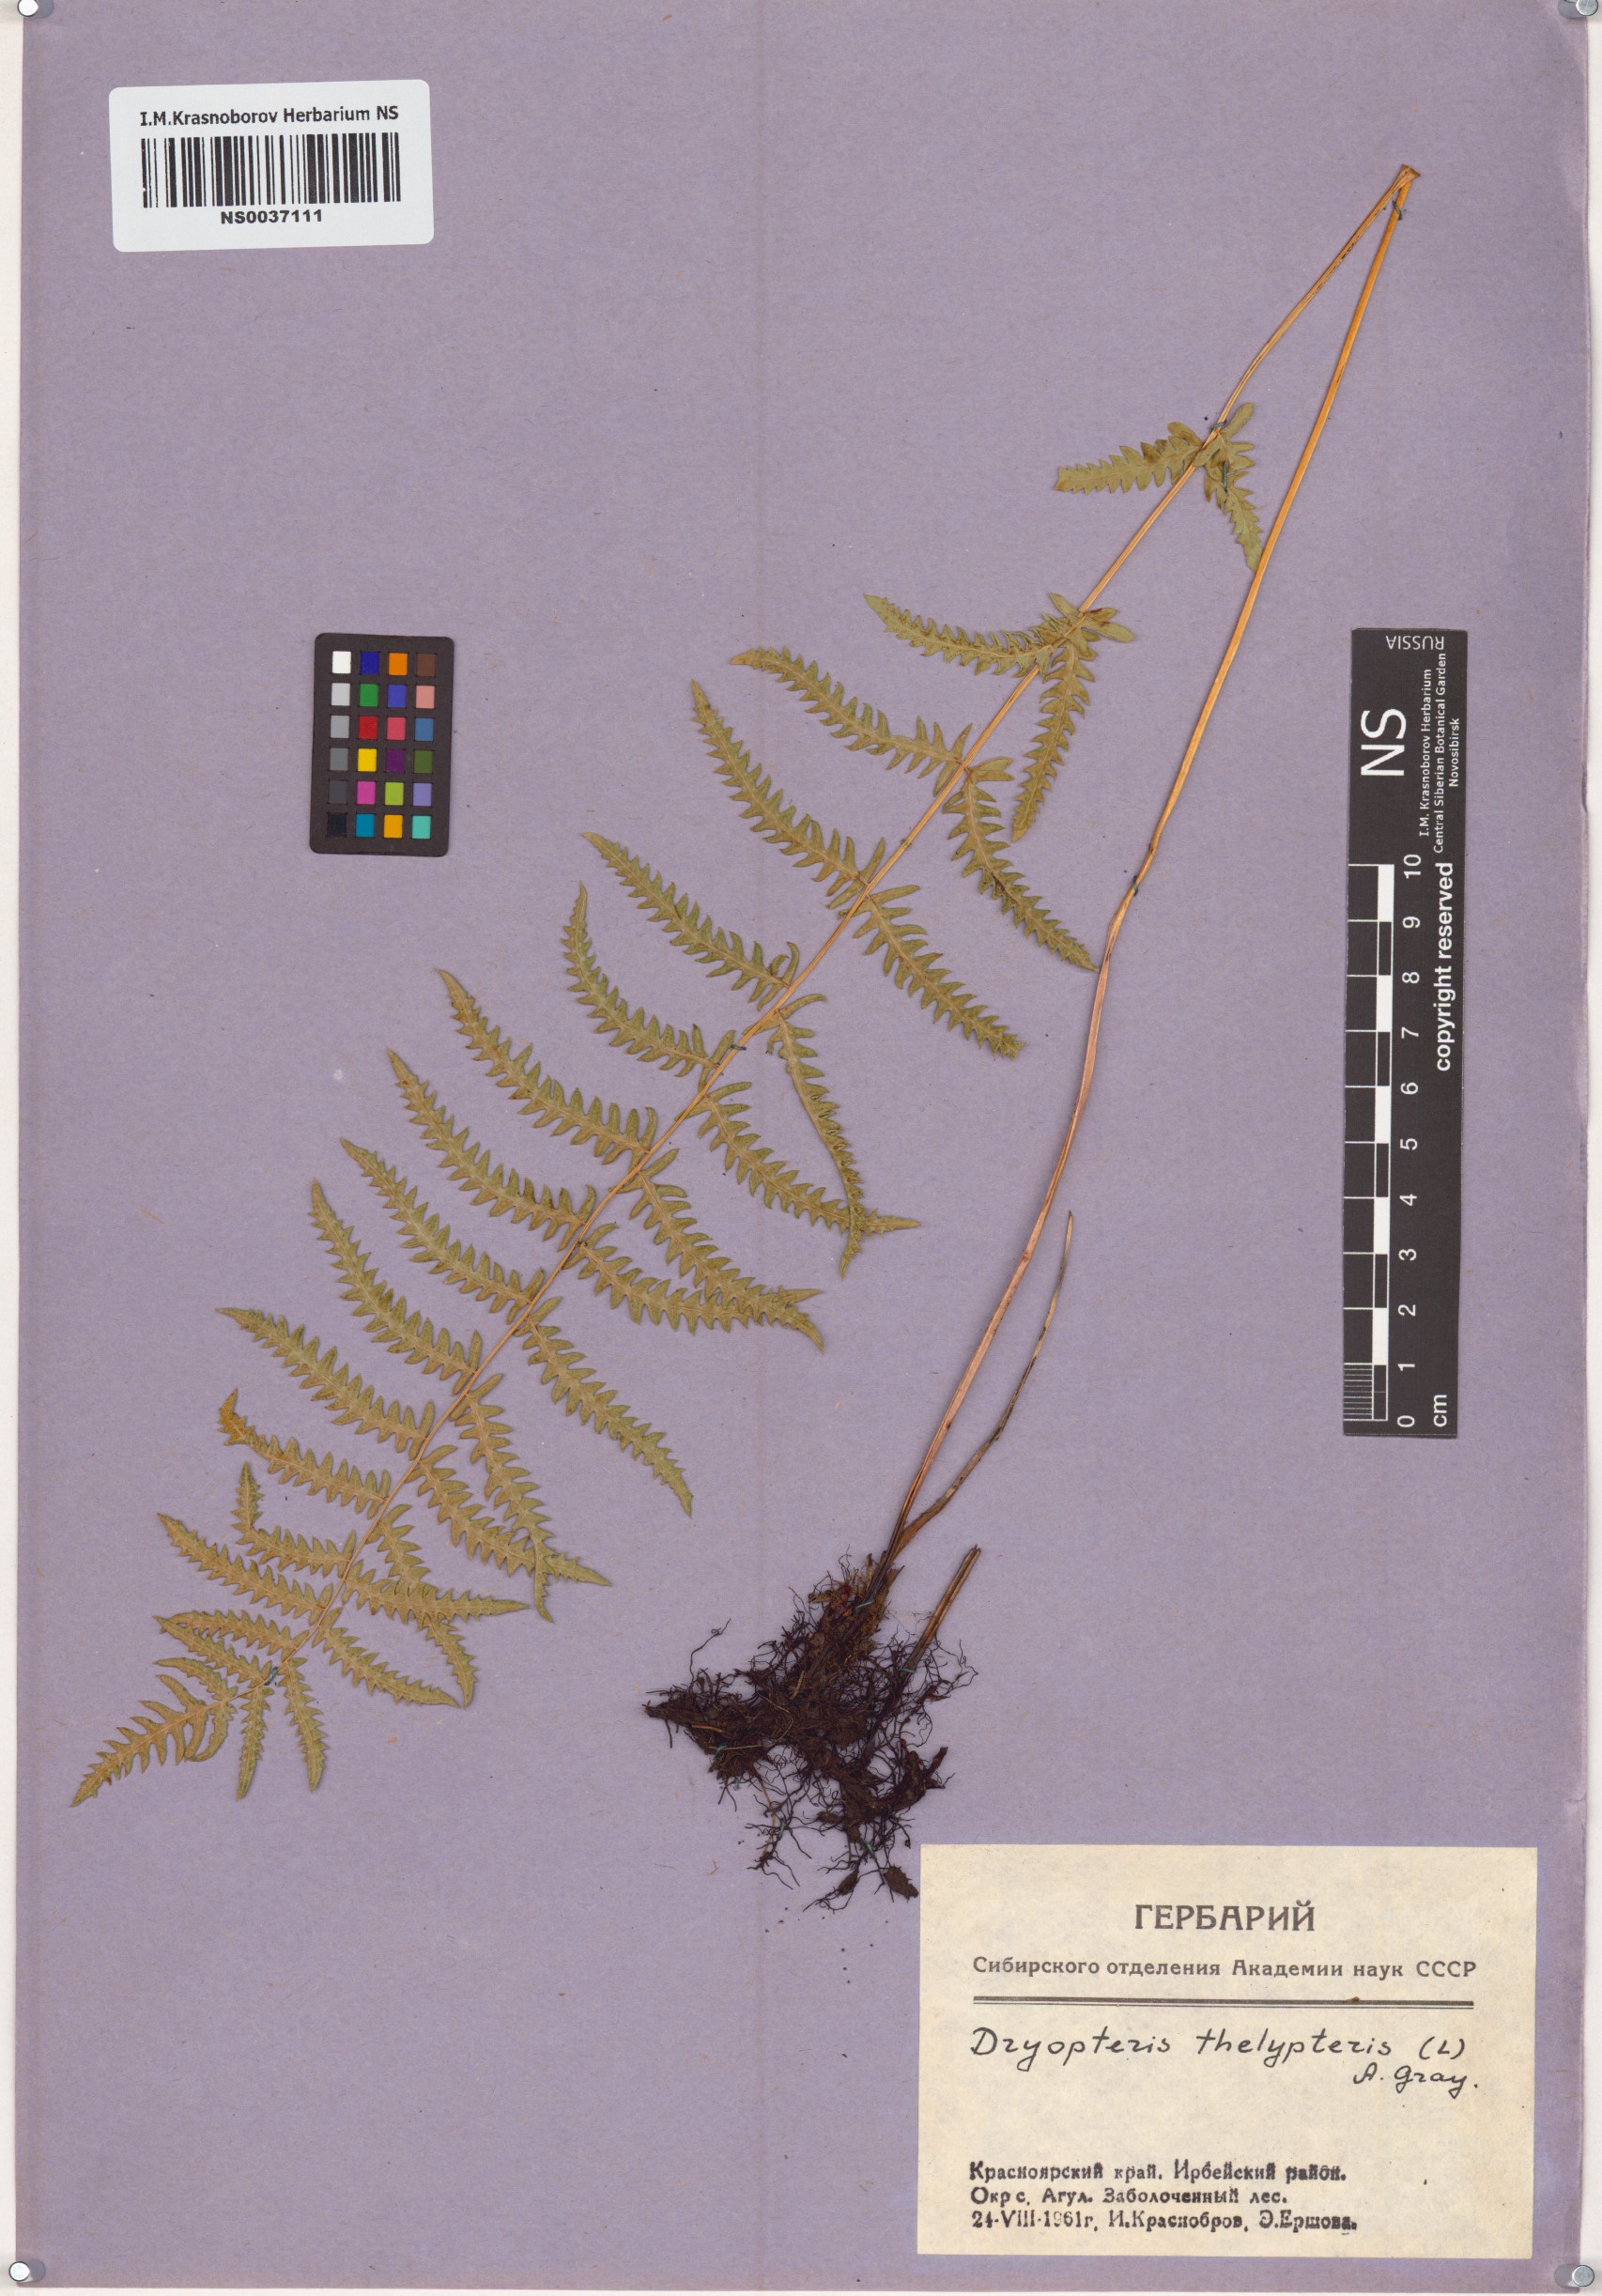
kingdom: Plantae
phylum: Tracheophyta
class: Polypodiopsida
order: Polypodiales
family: Thelypteridaceae
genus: Thelypteris
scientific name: Thelypteris palustris
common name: Marsh fern
